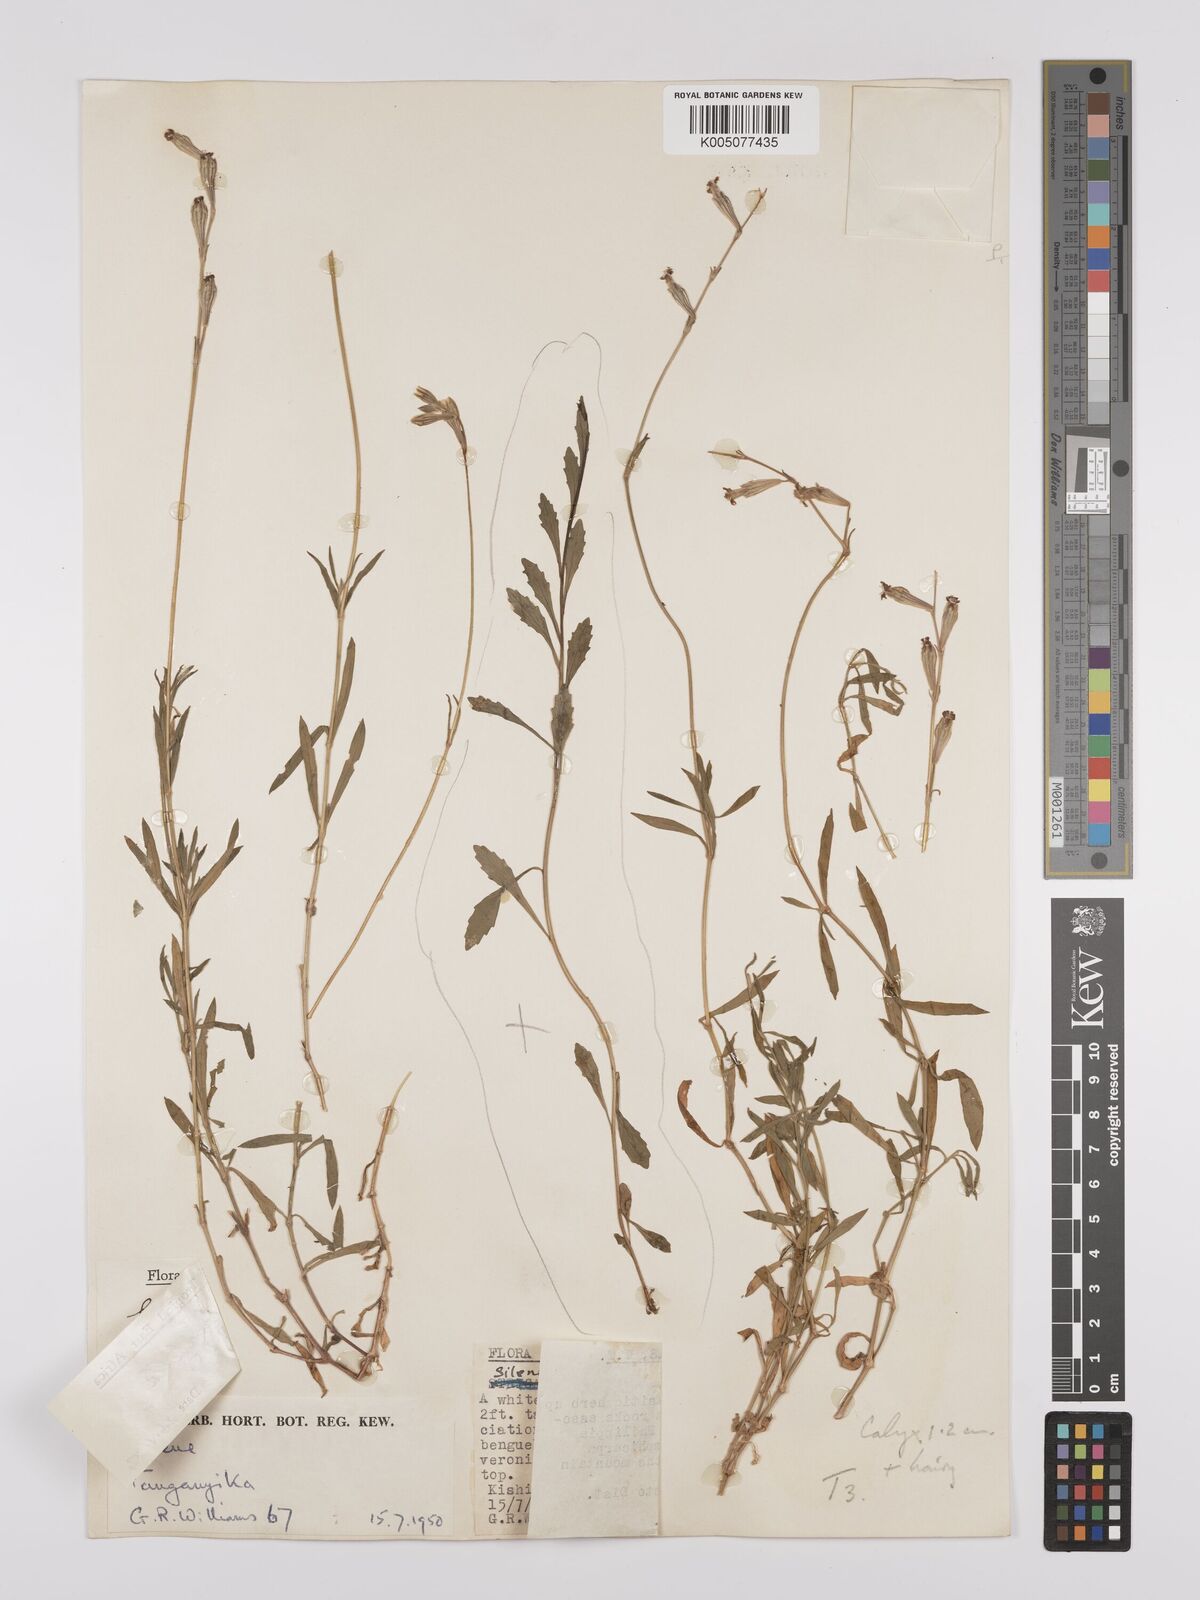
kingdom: Plantae
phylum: Tracheophyta
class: Magnoliopsida
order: Caryophyllales
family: Caryophyllaceae
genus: Silene
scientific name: Silene burchellii
